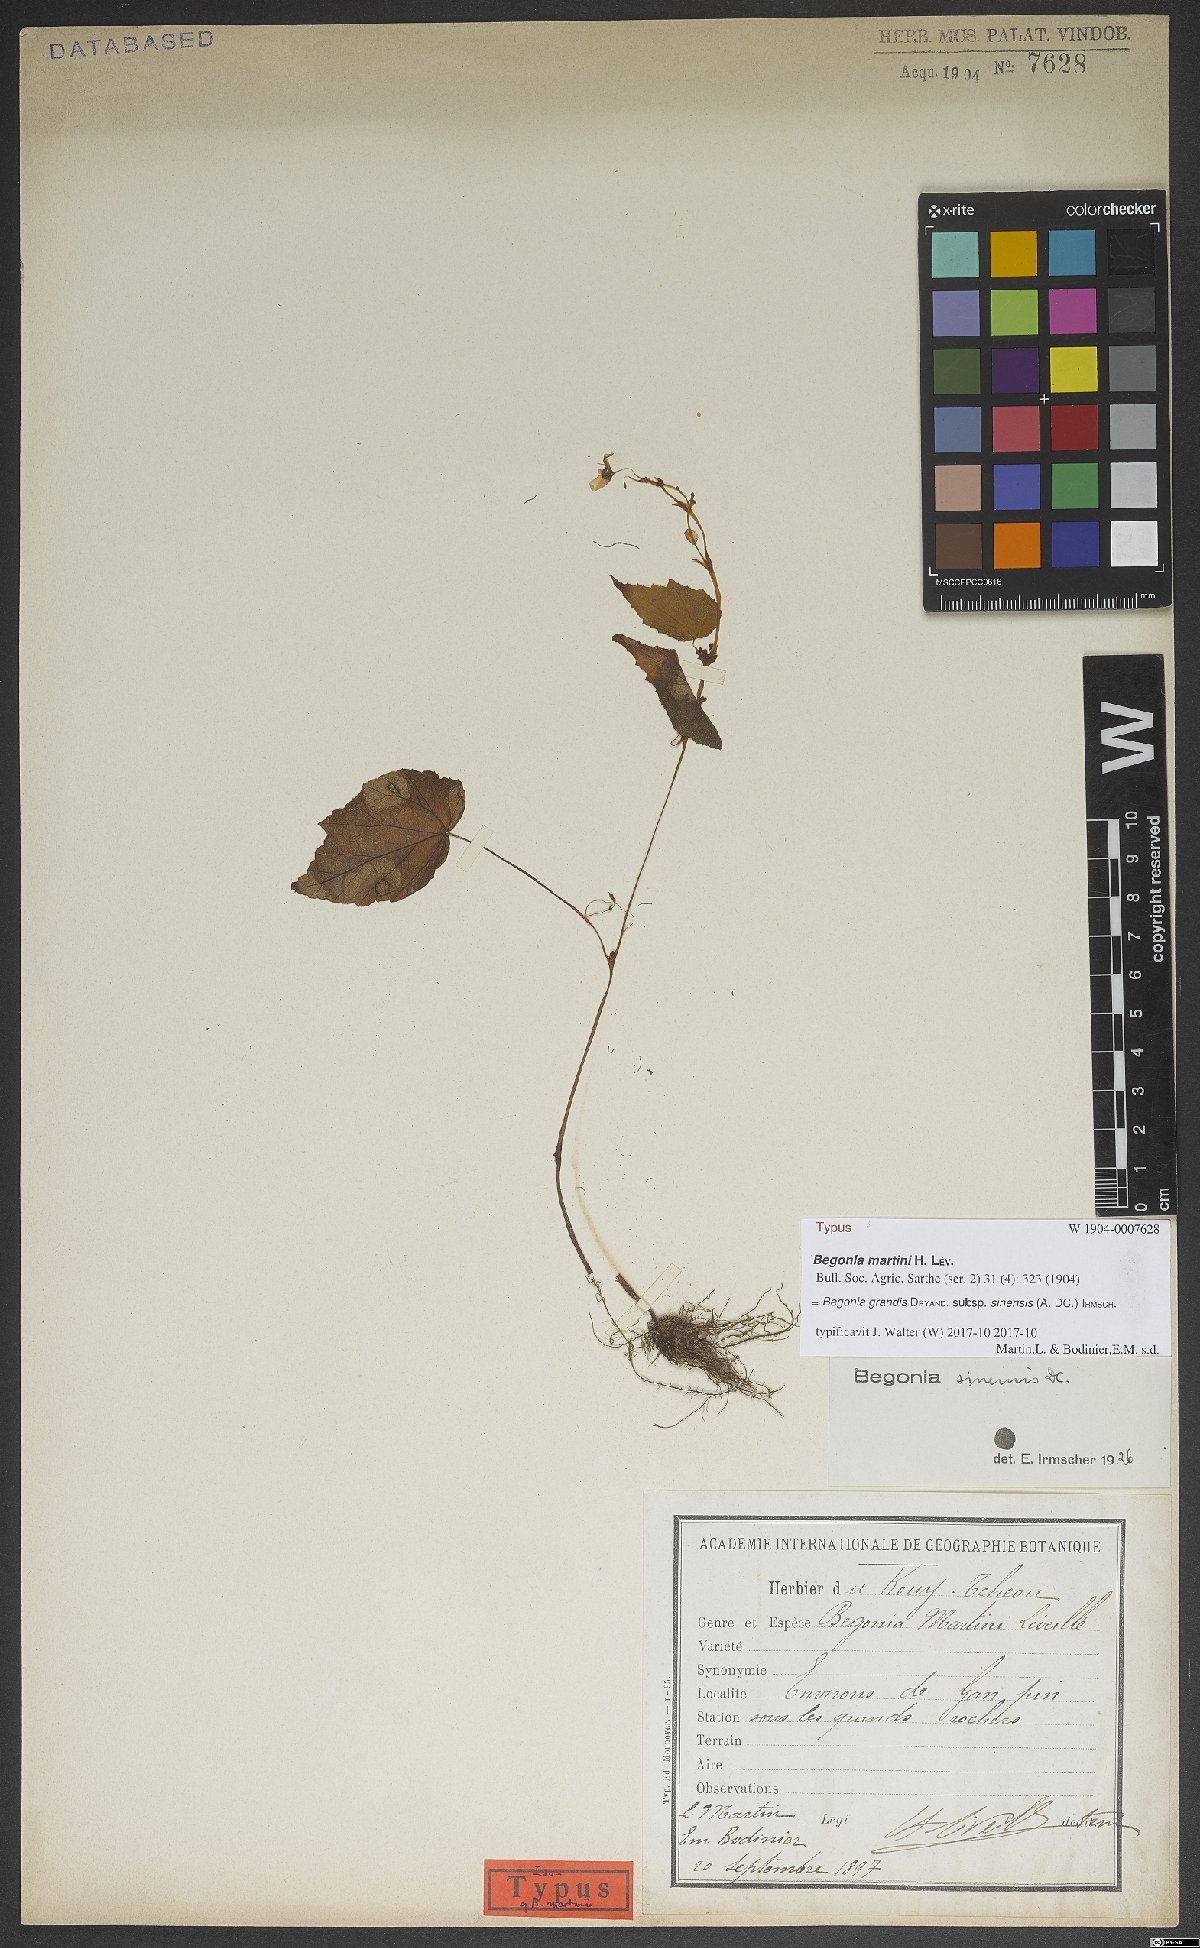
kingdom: Plantae
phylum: Tracheophyta
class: Magnoliopsida
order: Cucurbitales
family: Begoniaceae
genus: Begonia
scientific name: Begonia grandis
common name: Hardy begonia
